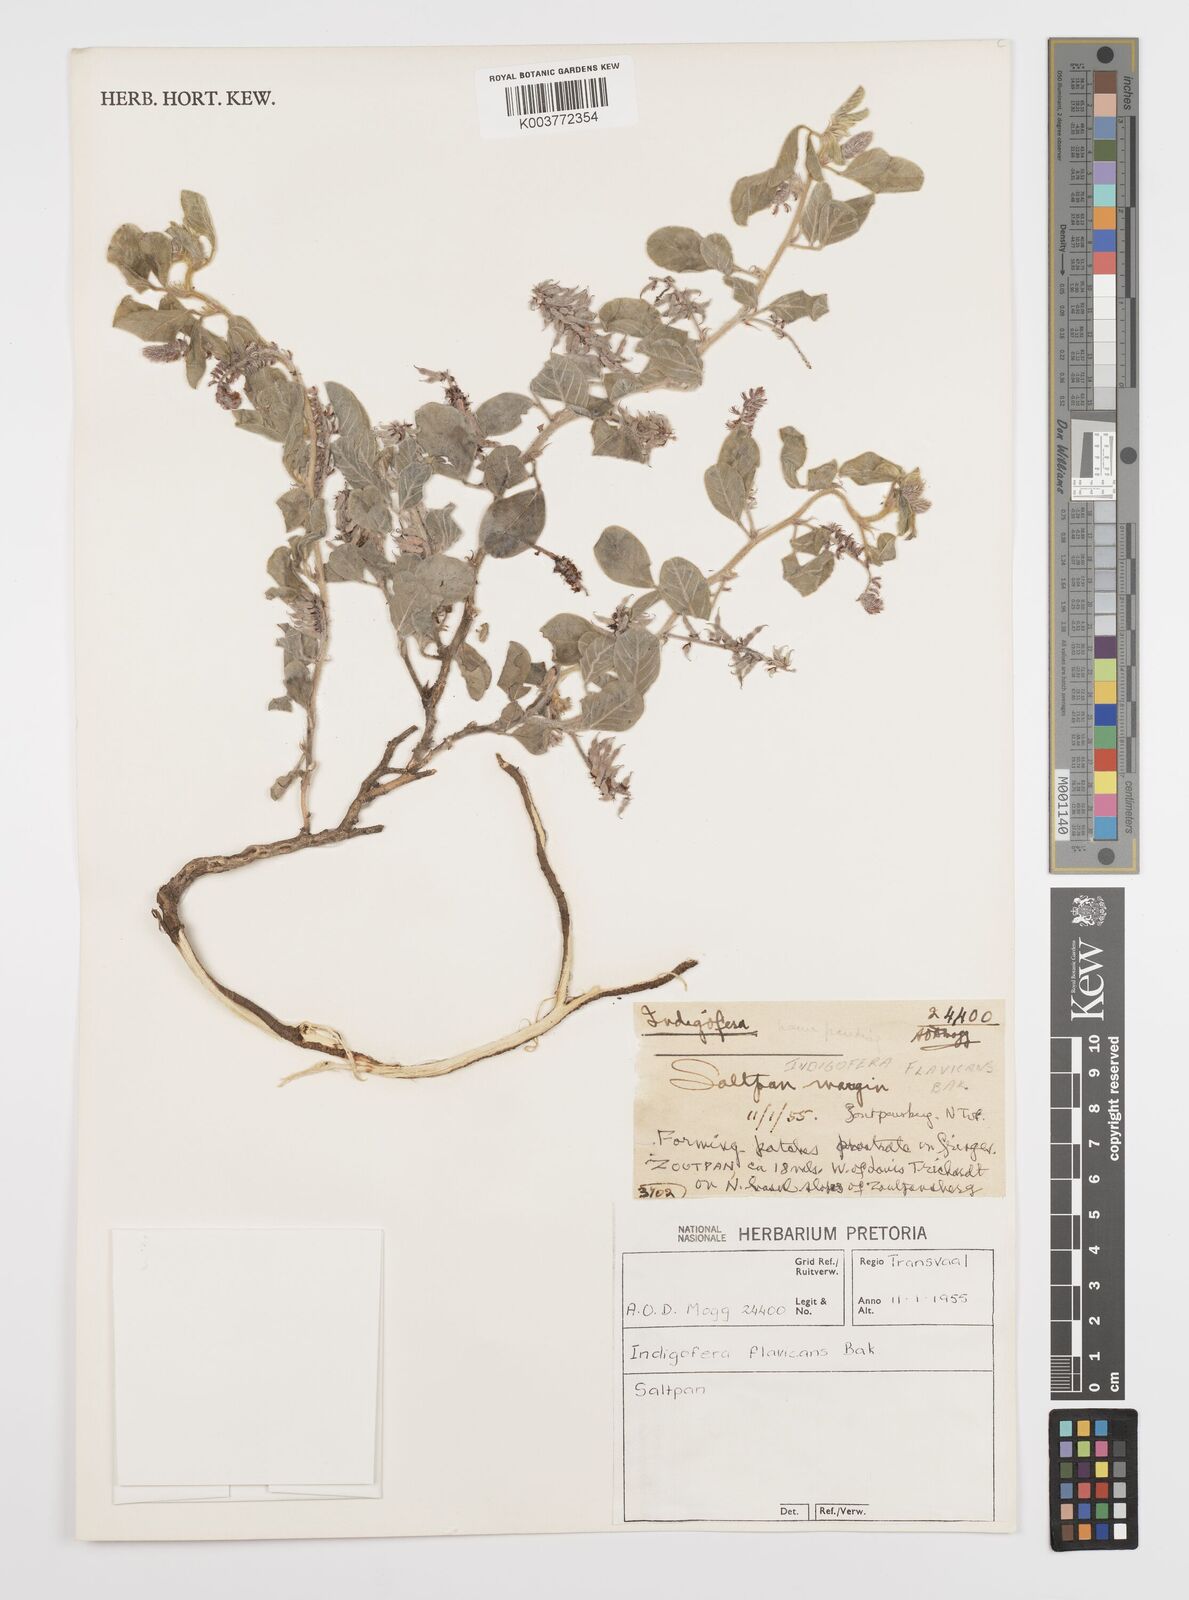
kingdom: Plantae
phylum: Tracheophyta
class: Magnoliopsida
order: Fabales
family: Fabaceae
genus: Indigofera
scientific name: Indigofera flavicans
